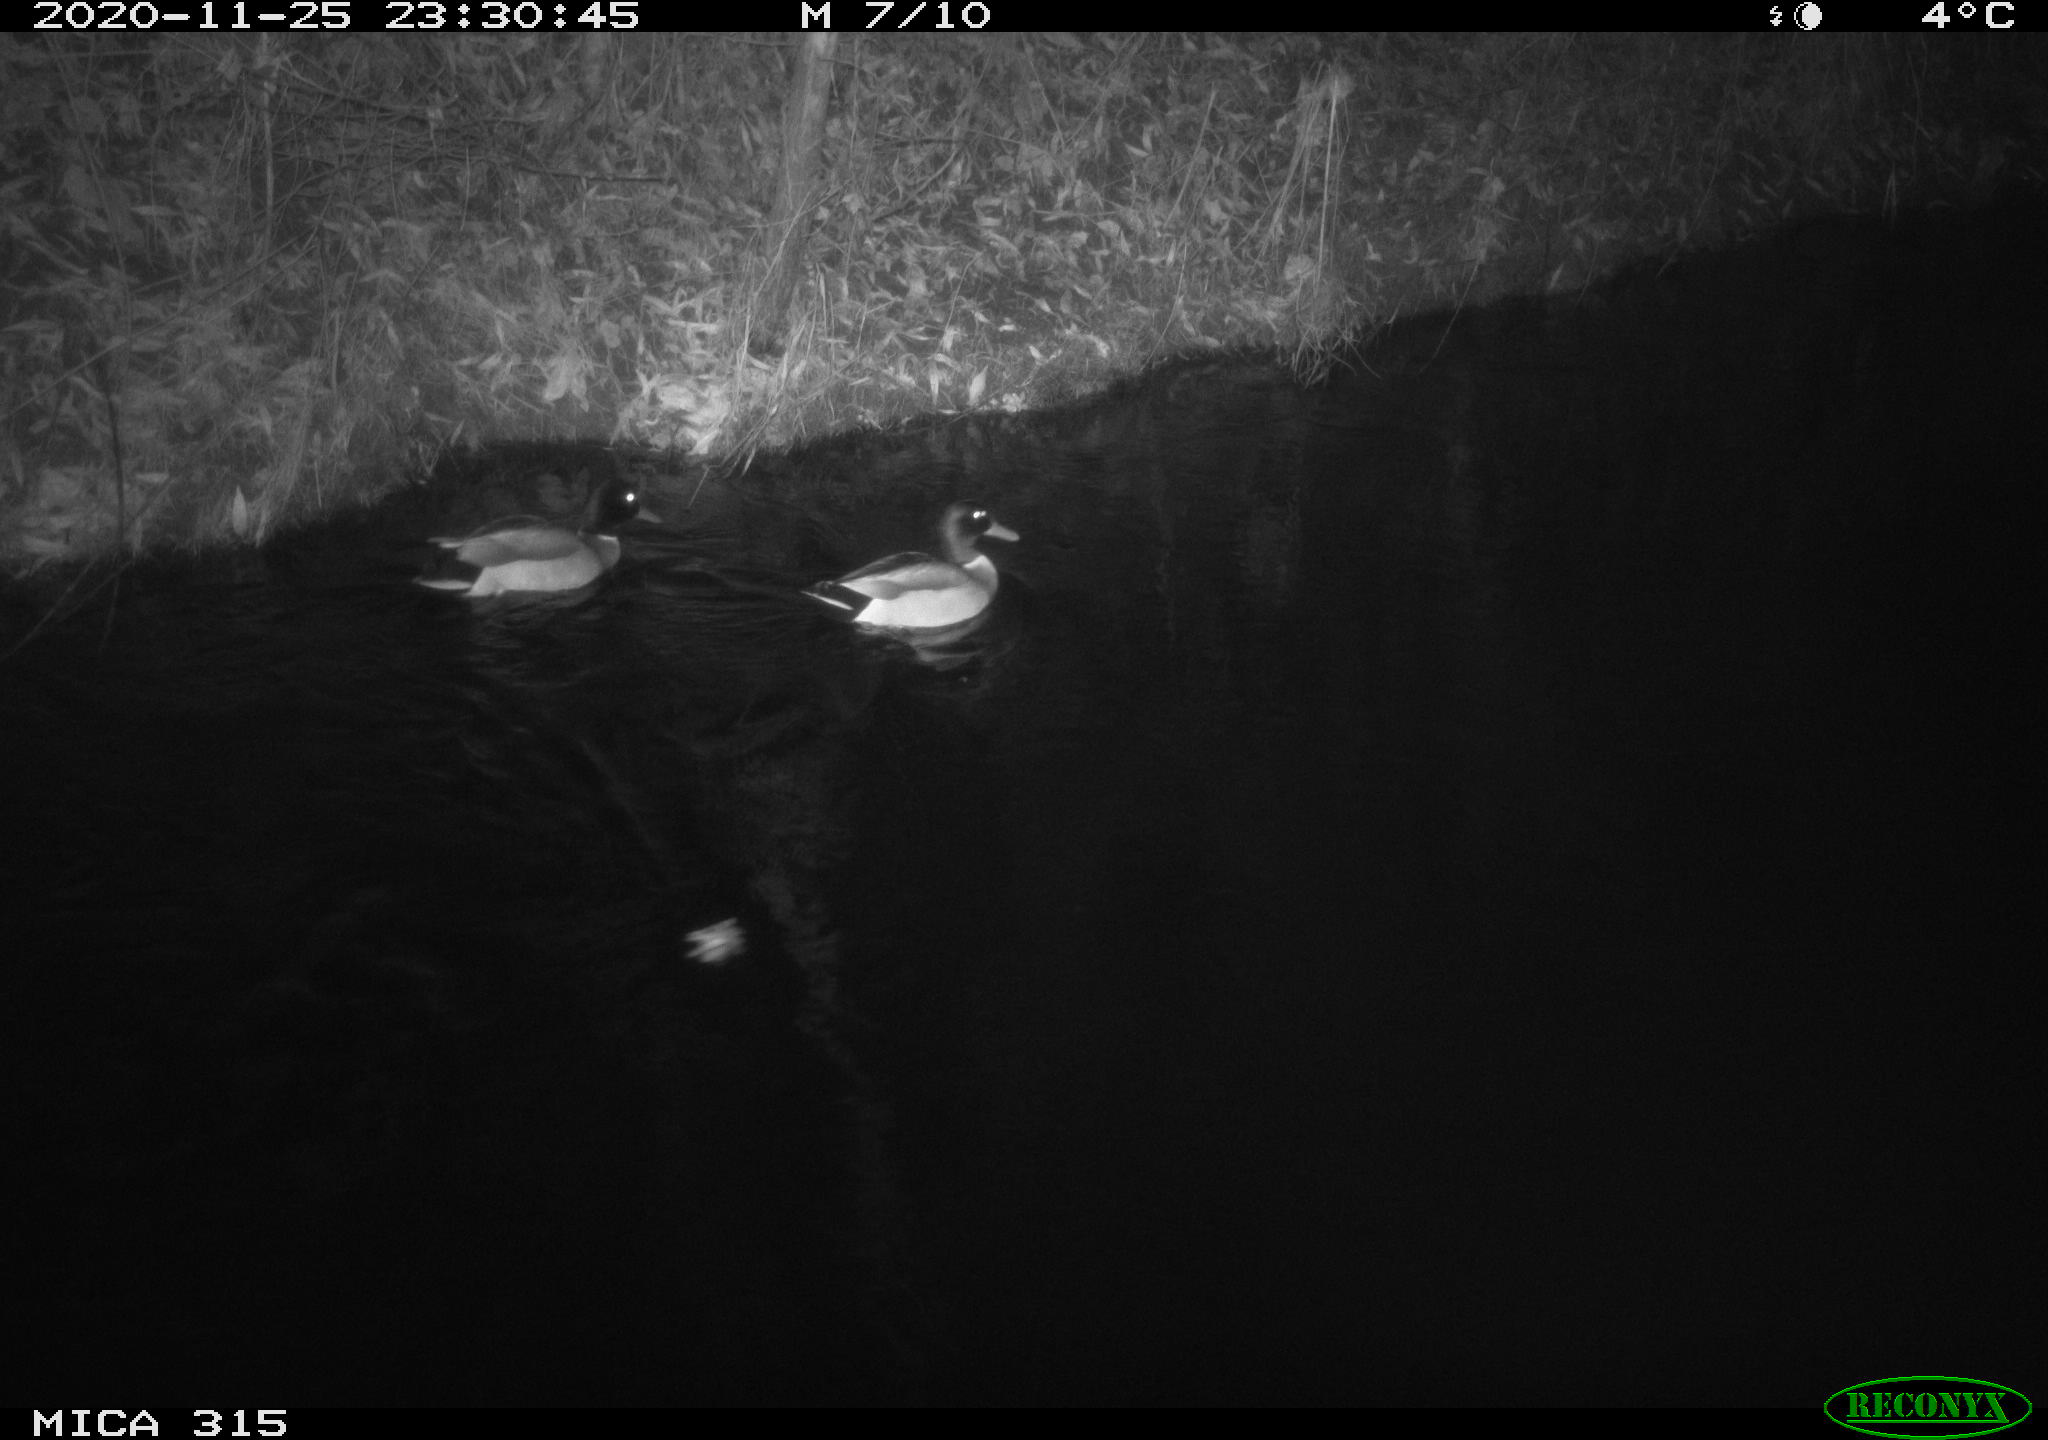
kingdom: Animalia
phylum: Chordata
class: Aves
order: Anseriformes
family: Anatidae
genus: Anas
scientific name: Anas platyrhynchos
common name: Mallard
